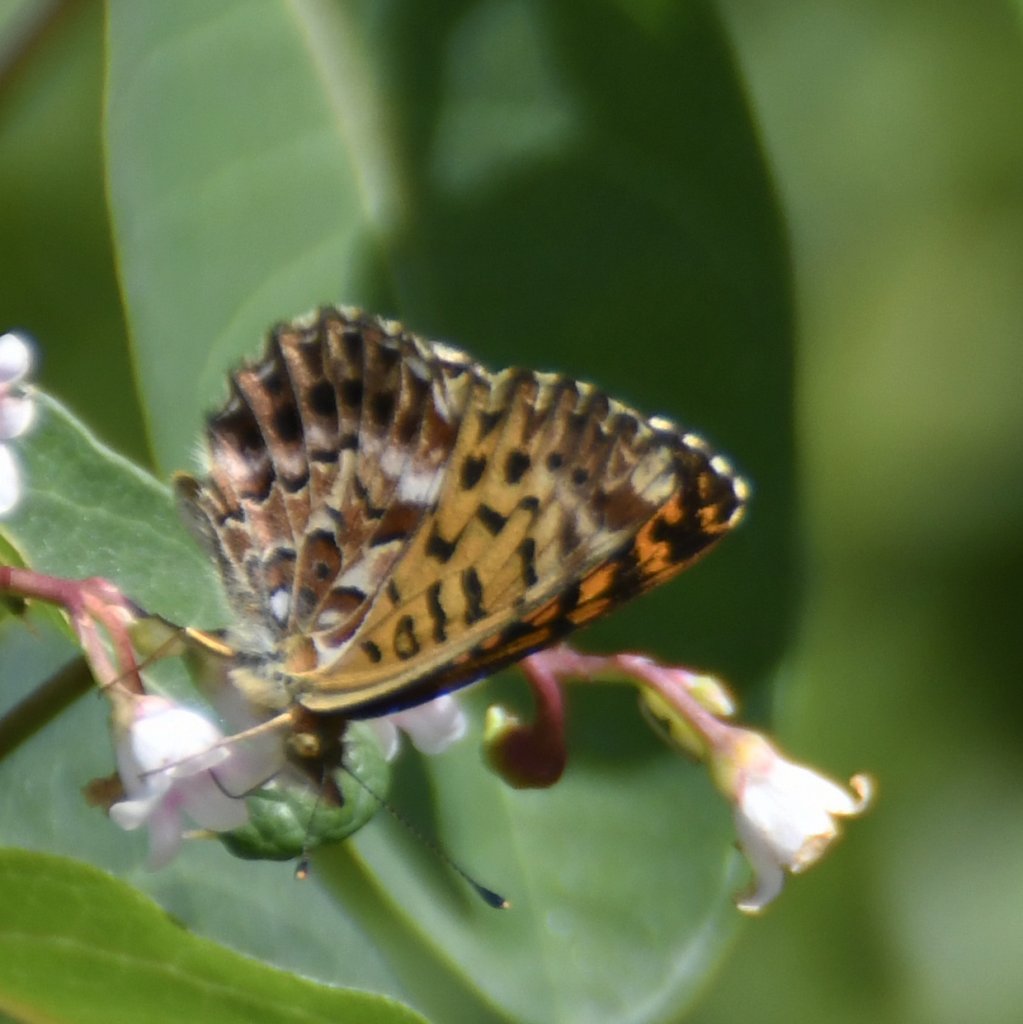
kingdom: Animalia
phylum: Arthropoda
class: Insecta
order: Lepidoptera
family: Nymphalidae
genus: Boloria
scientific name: Boloria chariclea
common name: Arctic Fritillary
